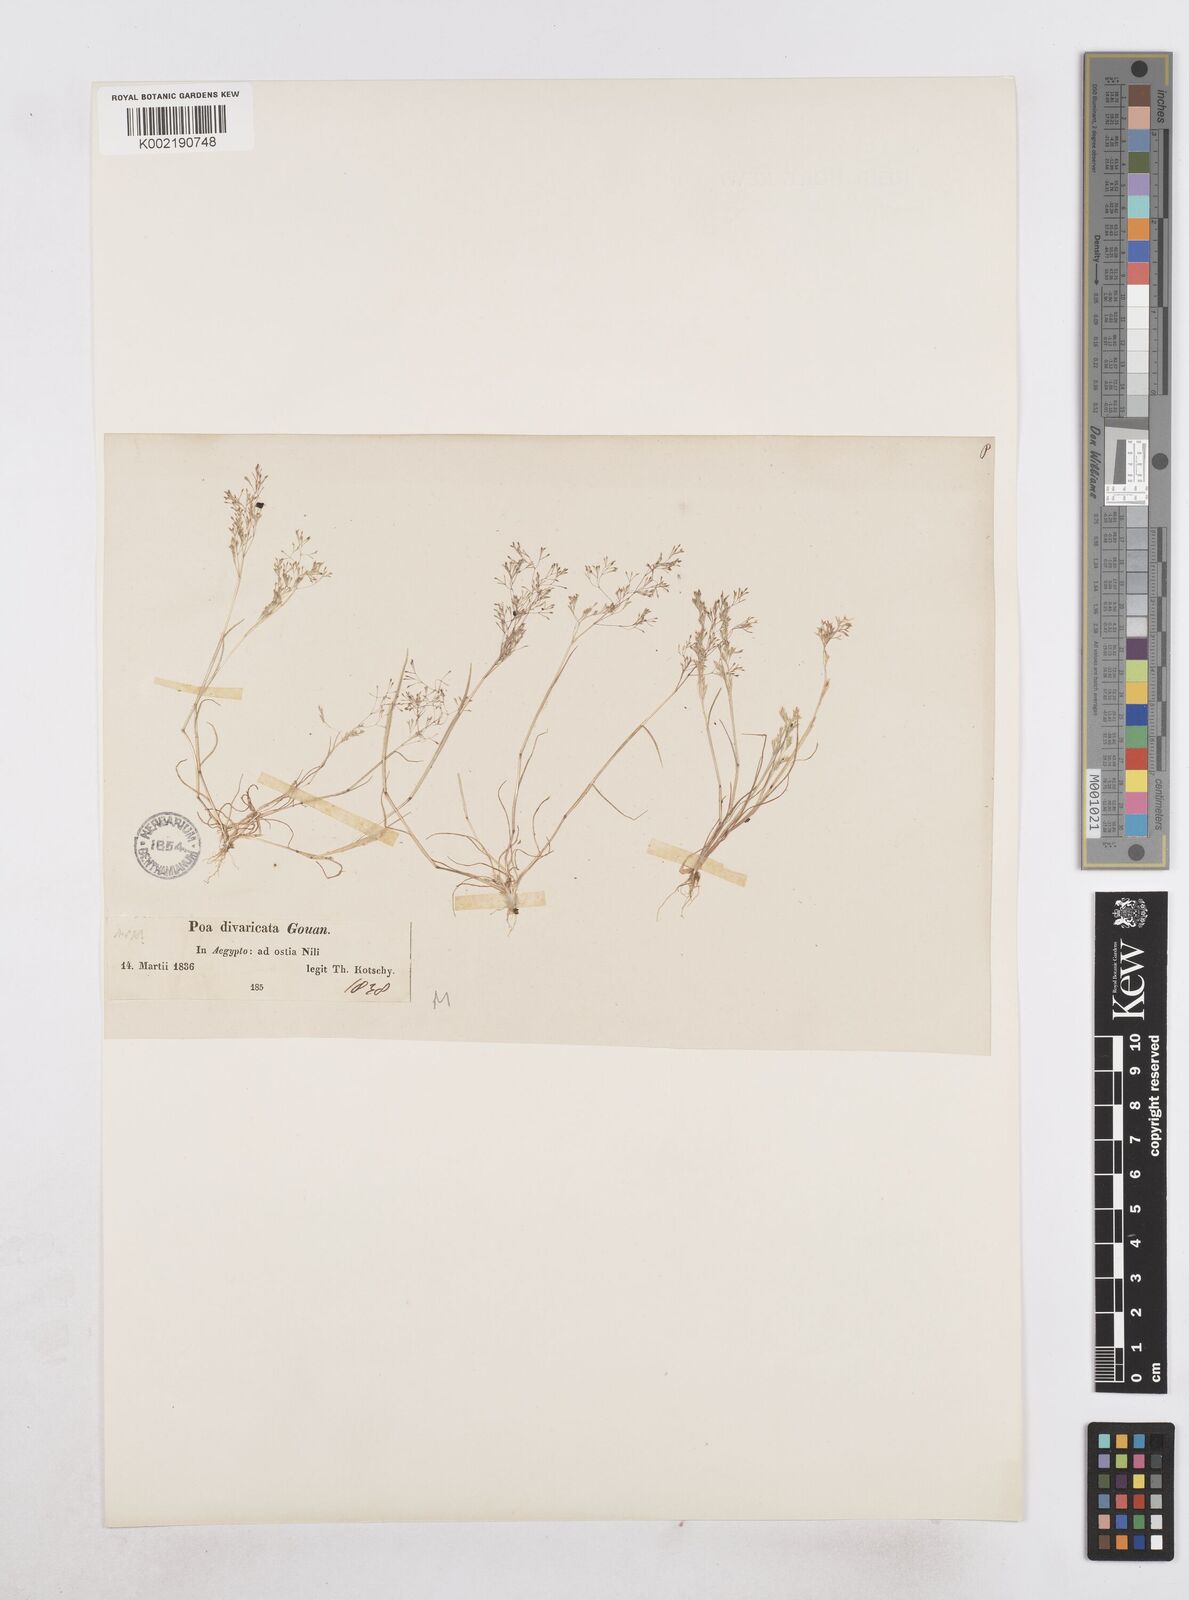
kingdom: Plantae
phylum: Tracheophyta
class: Liliopsida
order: Poales
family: Poaceae
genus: Sphenopus
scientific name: Sphenopus divaricatus
